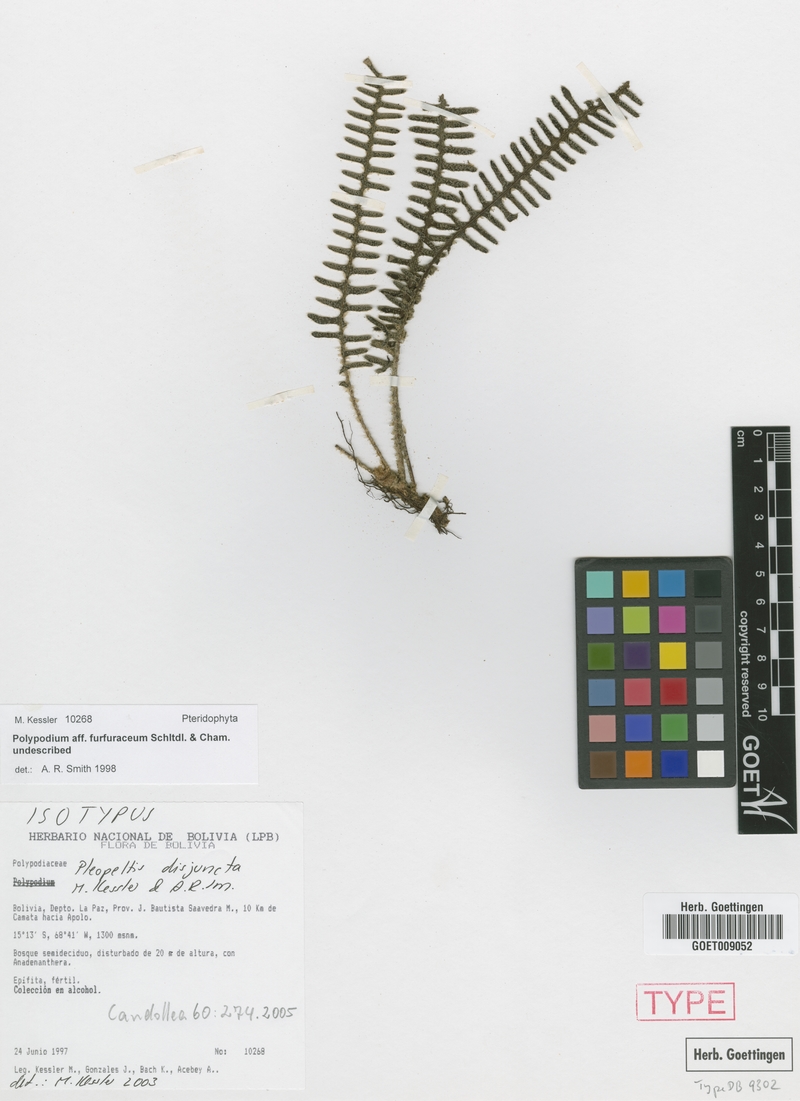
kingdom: Plantae
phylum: Tracheophyta
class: Polypodiopsida
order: Polypodiales
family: Polypodiaceae
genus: Pleopeltis
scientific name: Pleopeltis disjuncta
